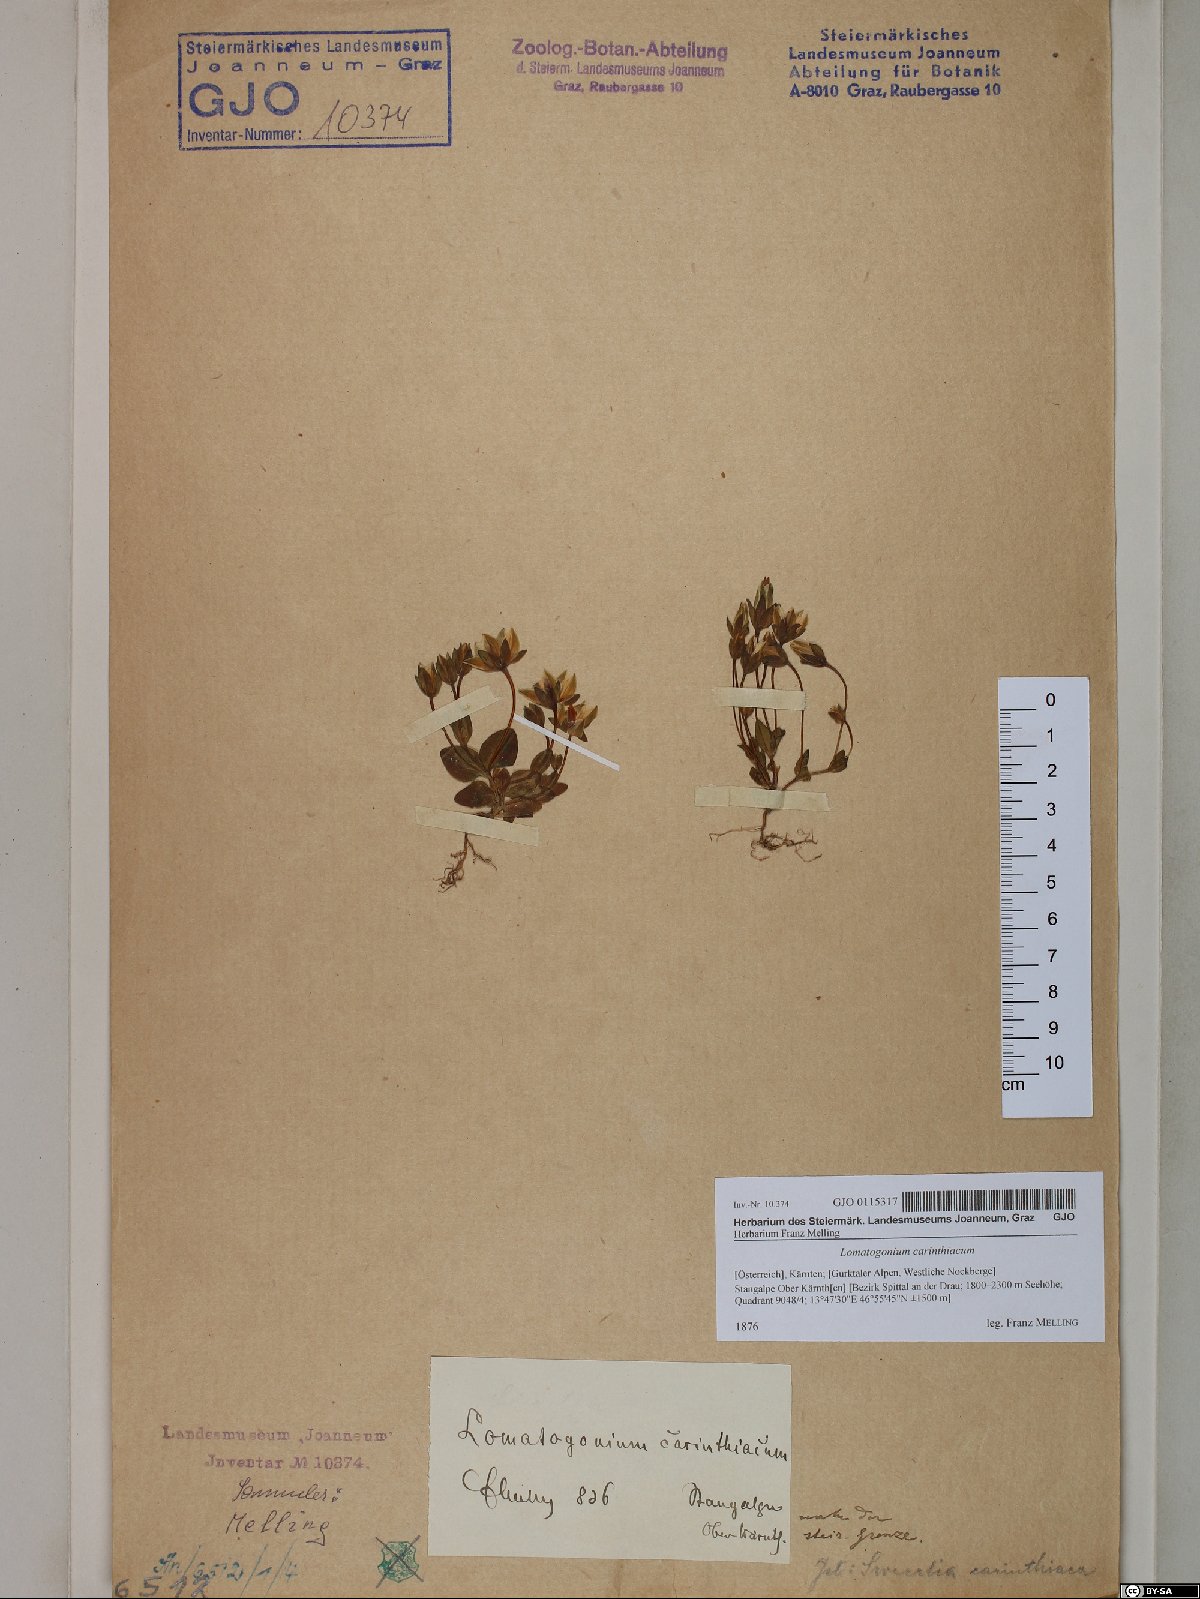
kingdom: Plantae
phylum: Tracheophyta
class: Magnoliopsida
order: Gentianales
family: Gentianaceae
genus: Lomatogonium
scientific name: Lomatogonium carinthiacum
